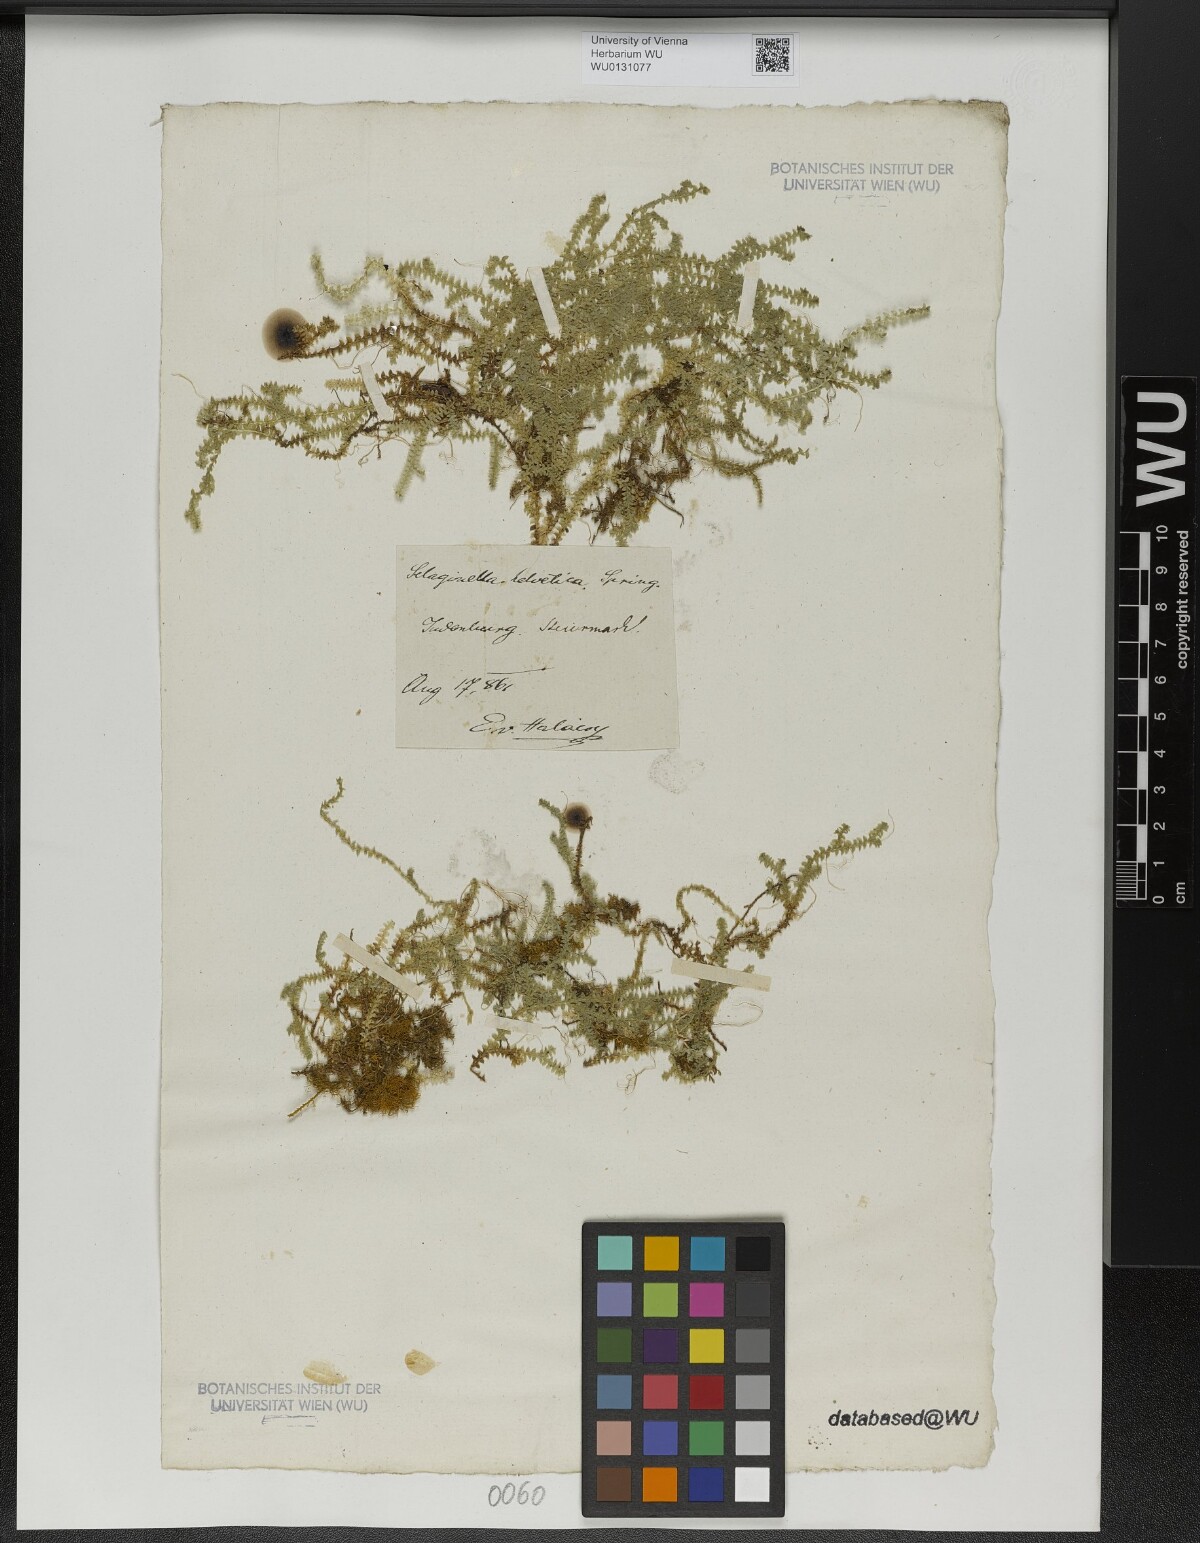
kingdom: Plantae
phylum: Tracheophyta
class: Lycopodiopsida
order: Selaginellales
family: Selaginellaceae
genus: Selaginella
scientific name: Selaginella helvetica
